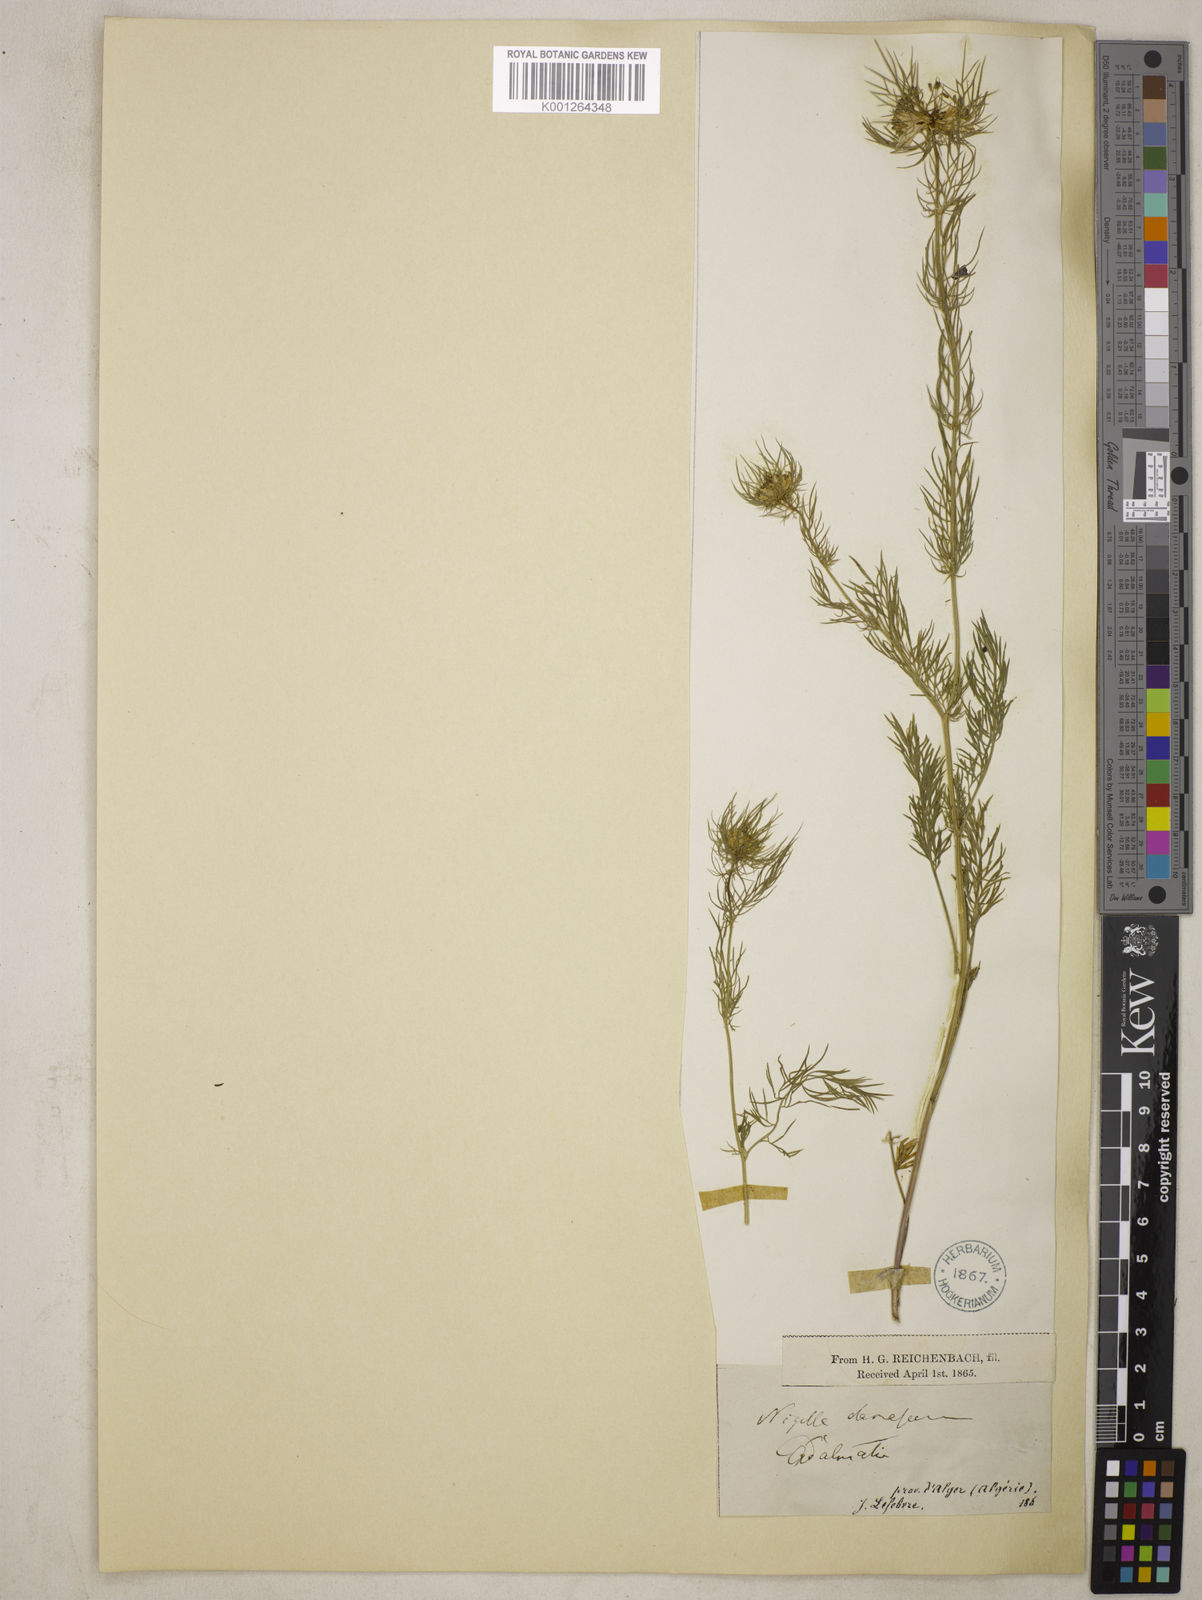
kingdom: Plantae
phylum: Tracheophyta
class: Magnoliopsida
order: Ranunculales
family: Ranunculaceae
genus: Nigella
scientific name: Nigella damascena
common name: Love-in-a-mist
